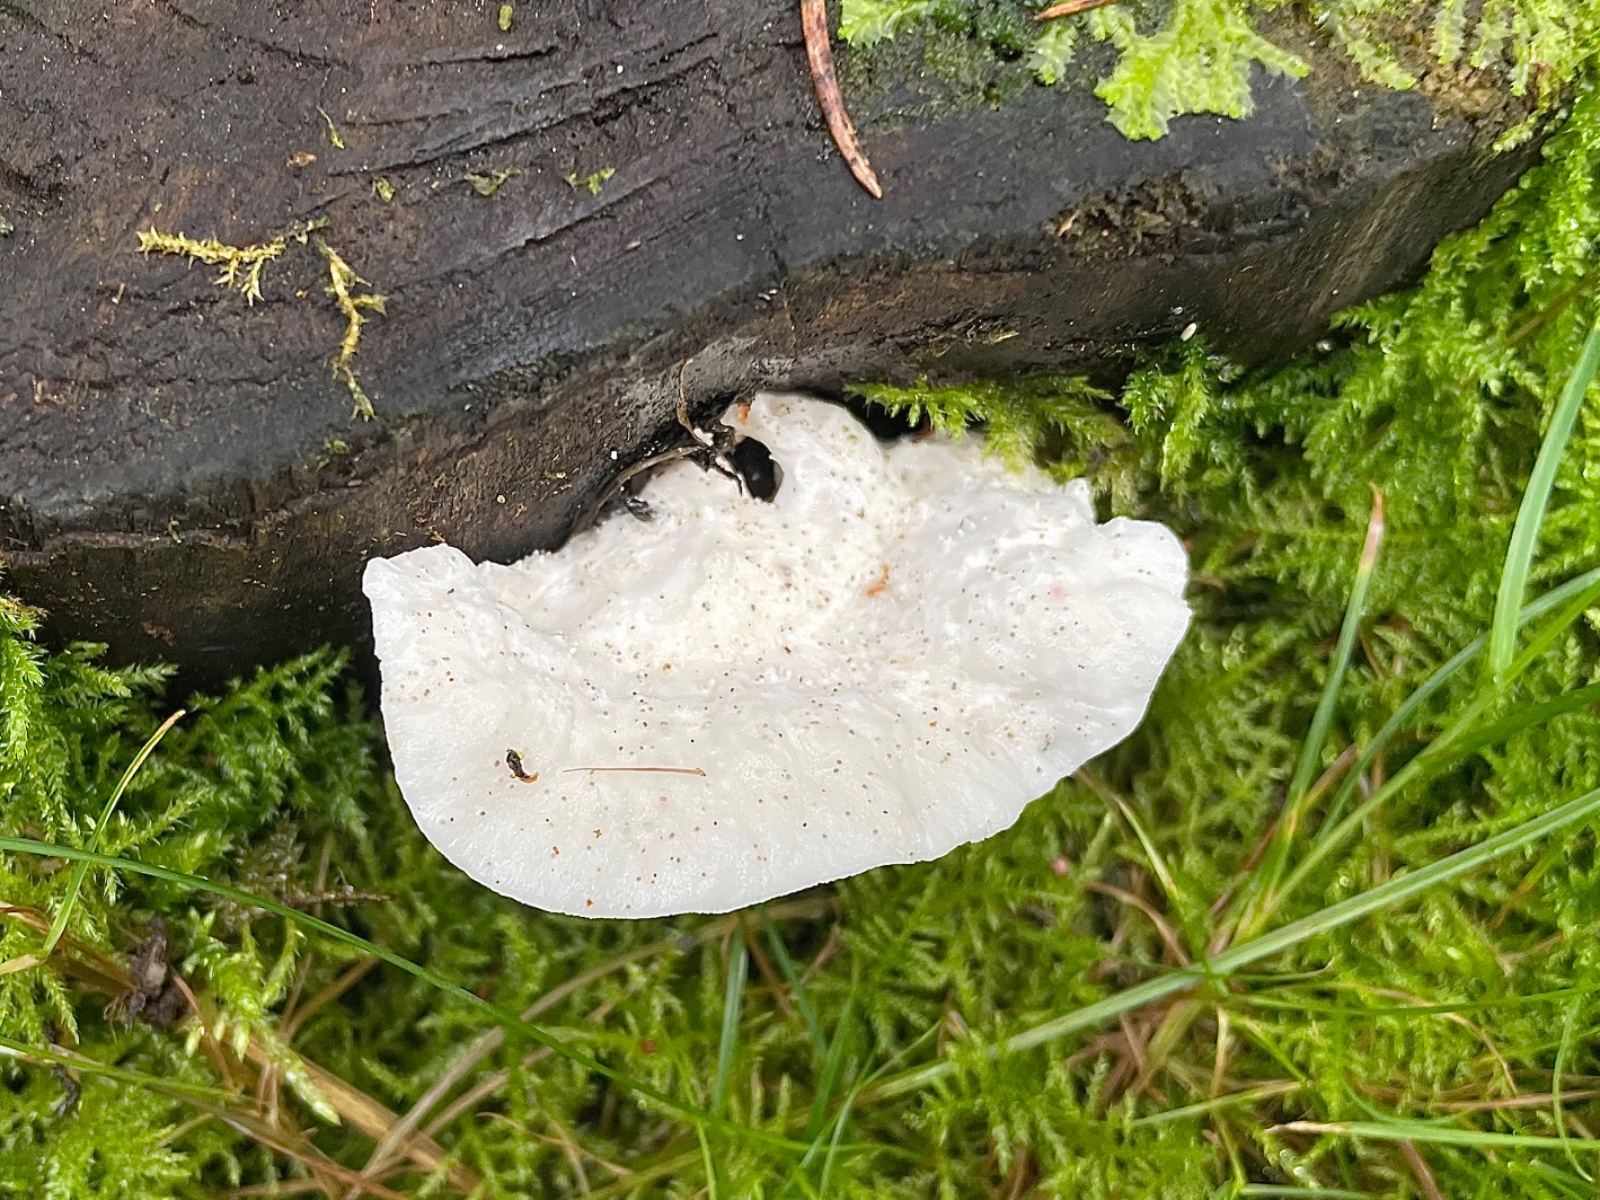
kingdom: Fungi
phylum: Basidiomycota
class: Agaricomycetes
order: Polyporales
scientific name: Polyporales
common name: poresvampordenen
